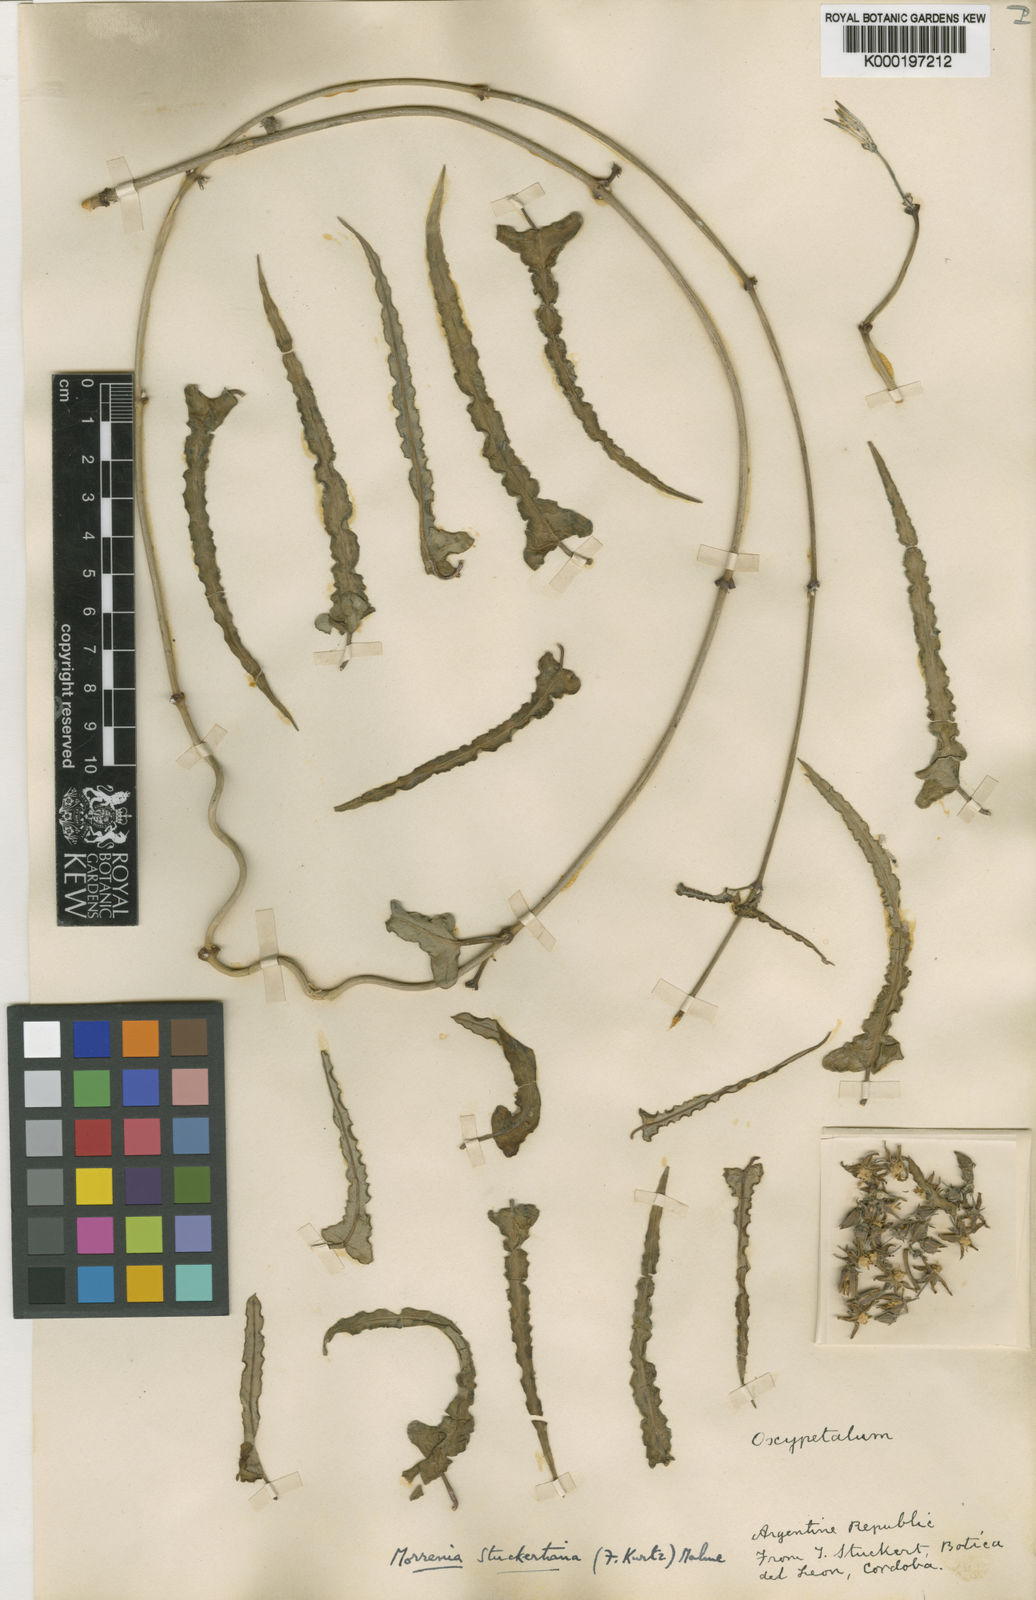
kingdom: Plantae
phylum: Tracheophyta
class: Magnoliopsida
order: Gentianales
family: Apocynaceae
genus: Araujia
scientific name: Araujia stuckertiana
